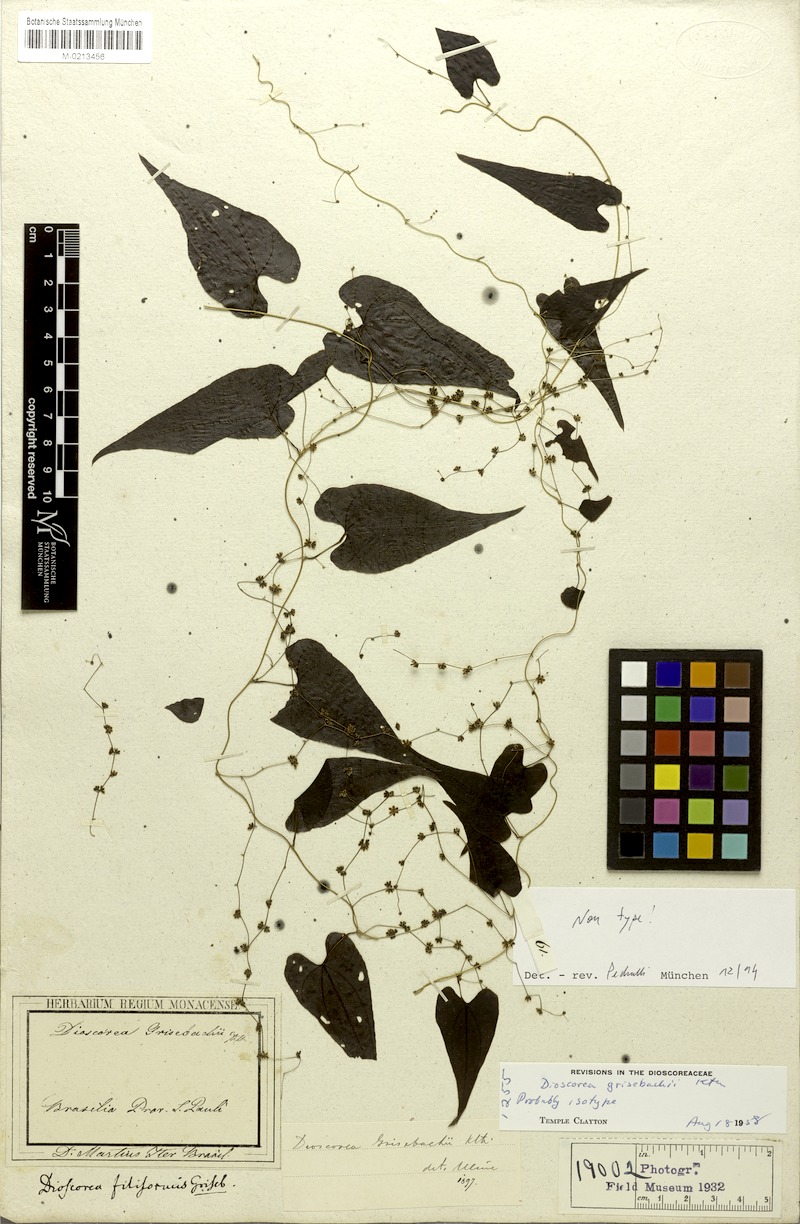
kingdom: Plantae
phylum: Tracheophyta
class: Liliopsida
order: Dioscoreales
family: Dioscoreaceae
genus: Dioscorea
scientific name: Dioscorea grisebachii
